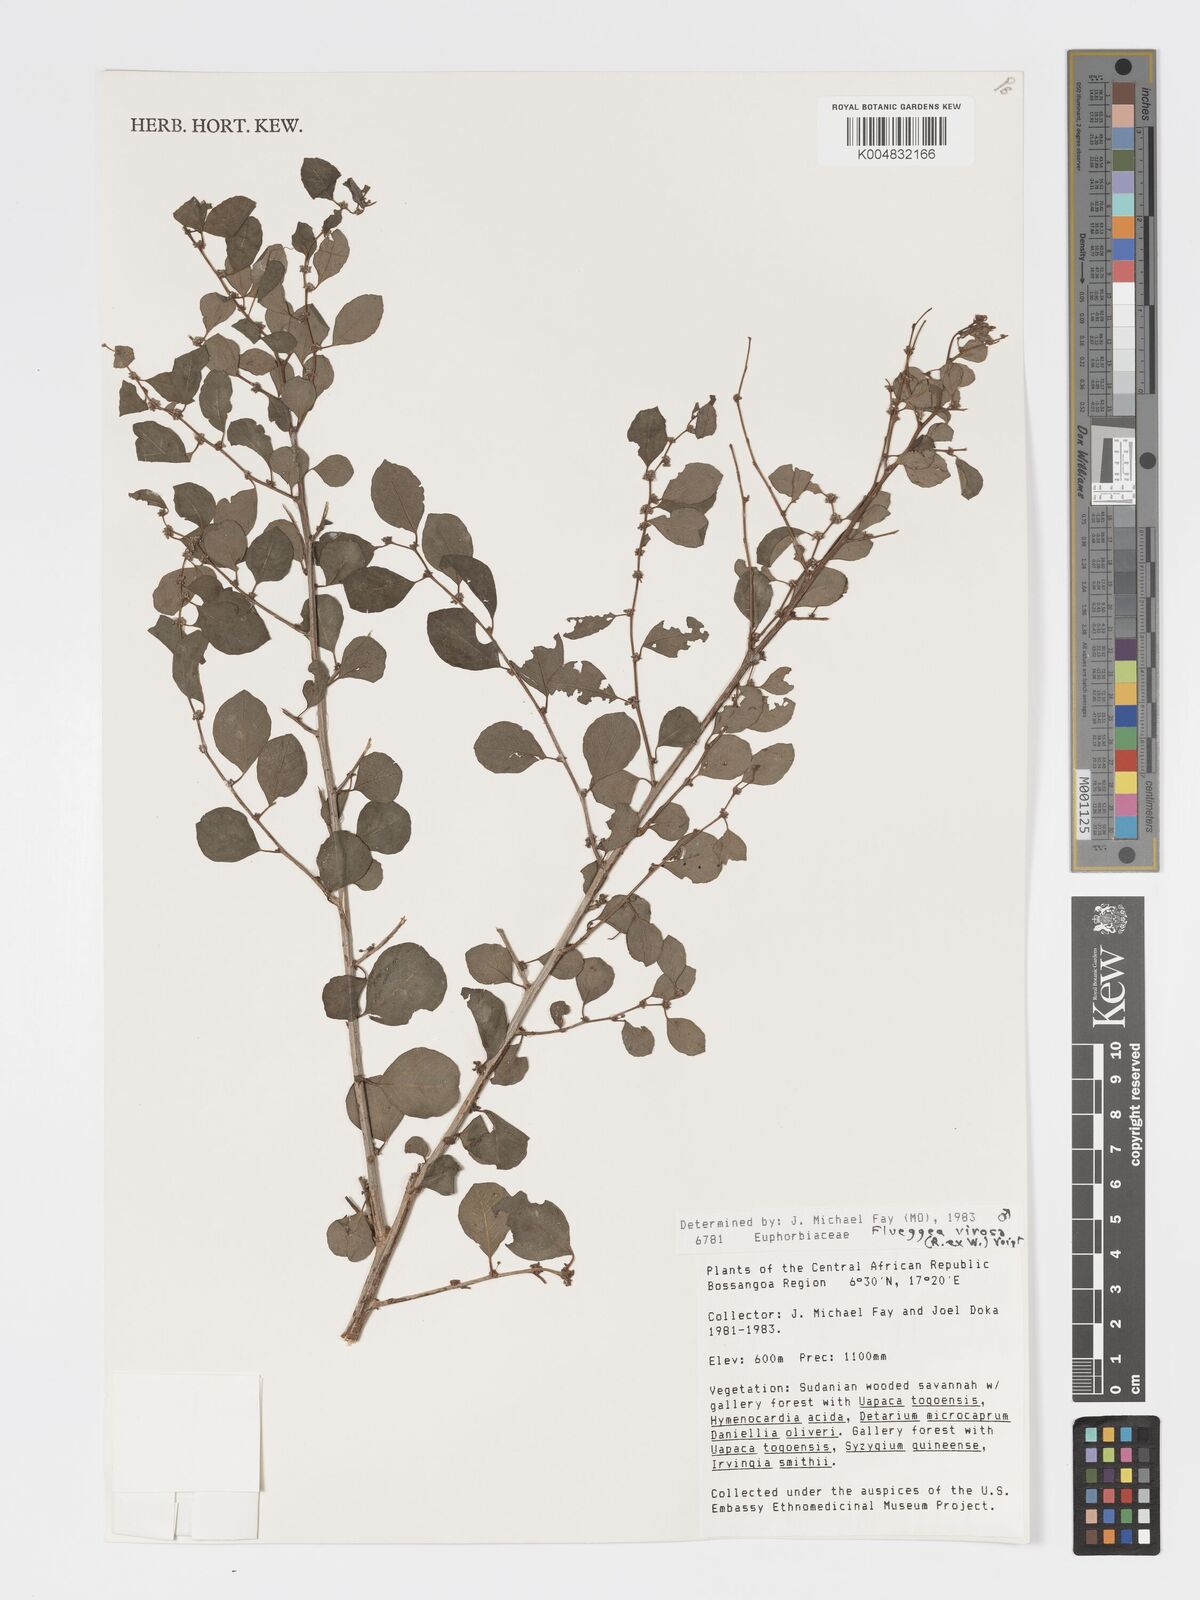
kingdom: Plantae
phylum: Tracheophyta
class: Magnoliopsida
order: Malpighiales
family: Phyllanthaceae
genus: Flueggea
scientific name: Flueggea virosa
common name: Common bushweed
